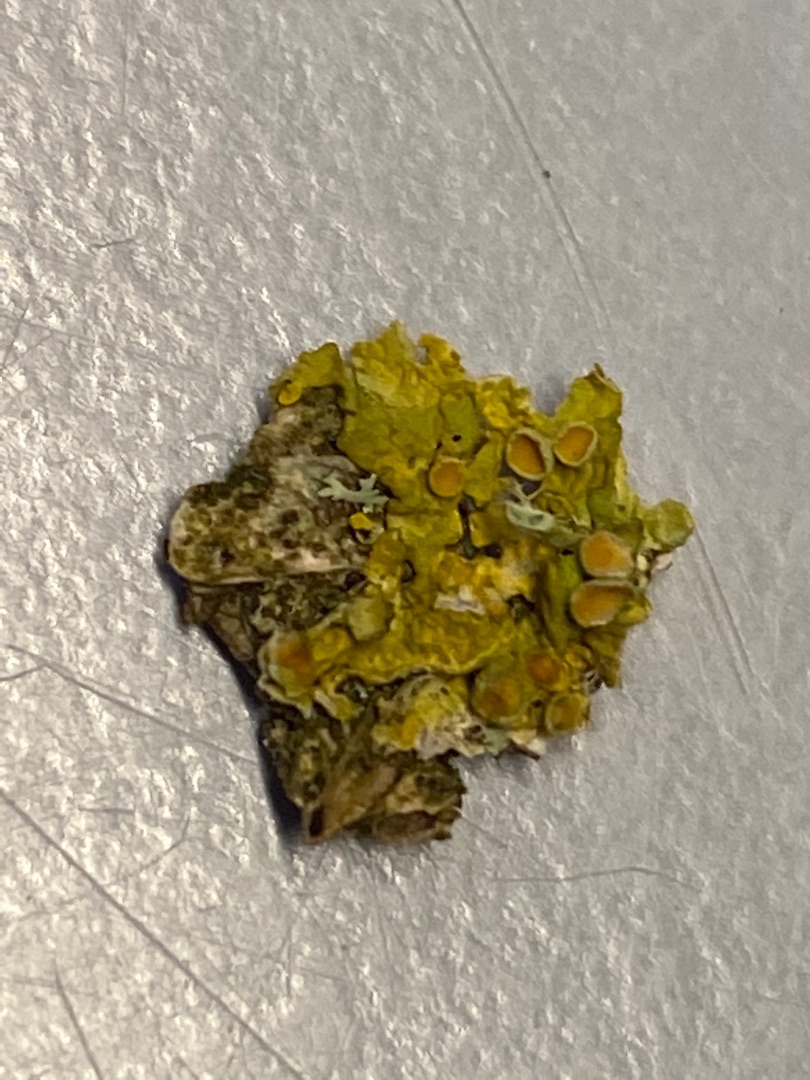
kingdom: Fungi
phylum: Ascomycota
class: Lecanoromycetes
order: Teloschistales
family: Teloschistaceae
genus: Xanthoria
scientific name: Xanthoria parietina
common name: Almindelig væggelav
